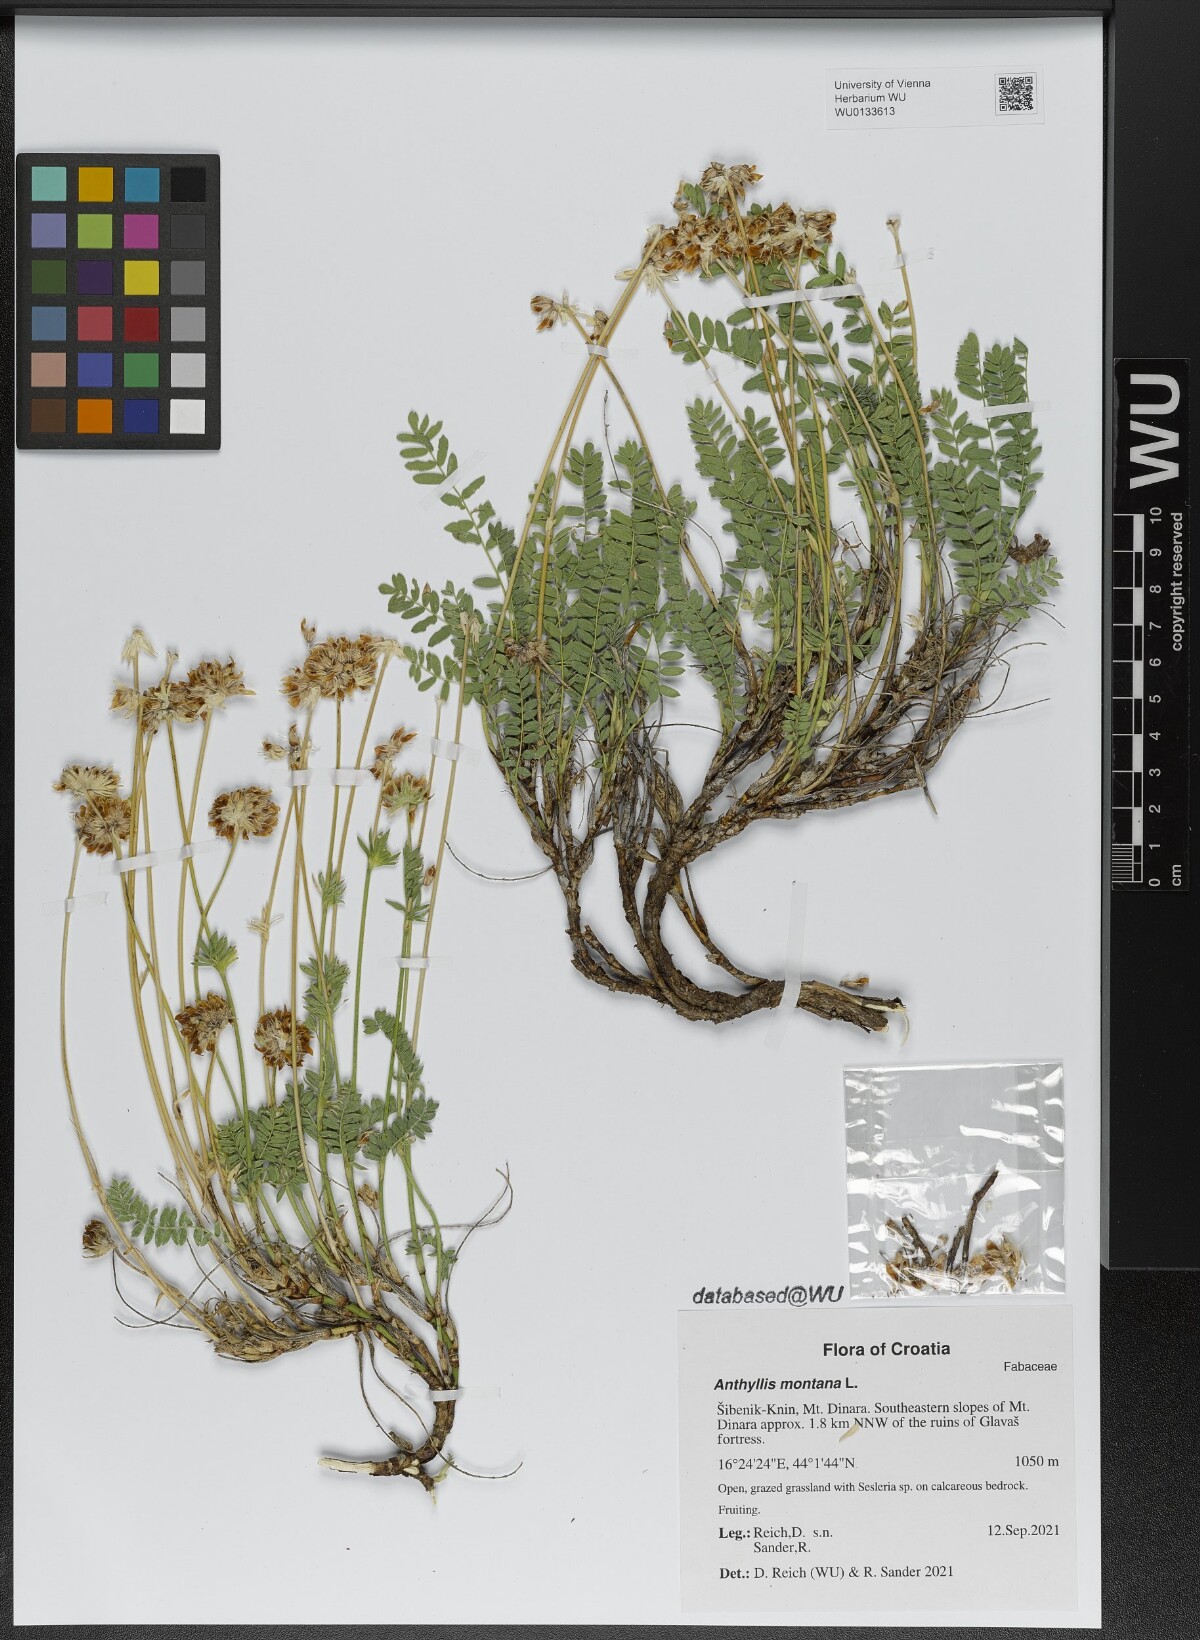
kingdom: Plantae
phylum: Tracheophyta
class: Magnoliopsida
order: Fabales
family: Fabaceae
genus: Anthyllis
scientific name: Anthyllis montana
